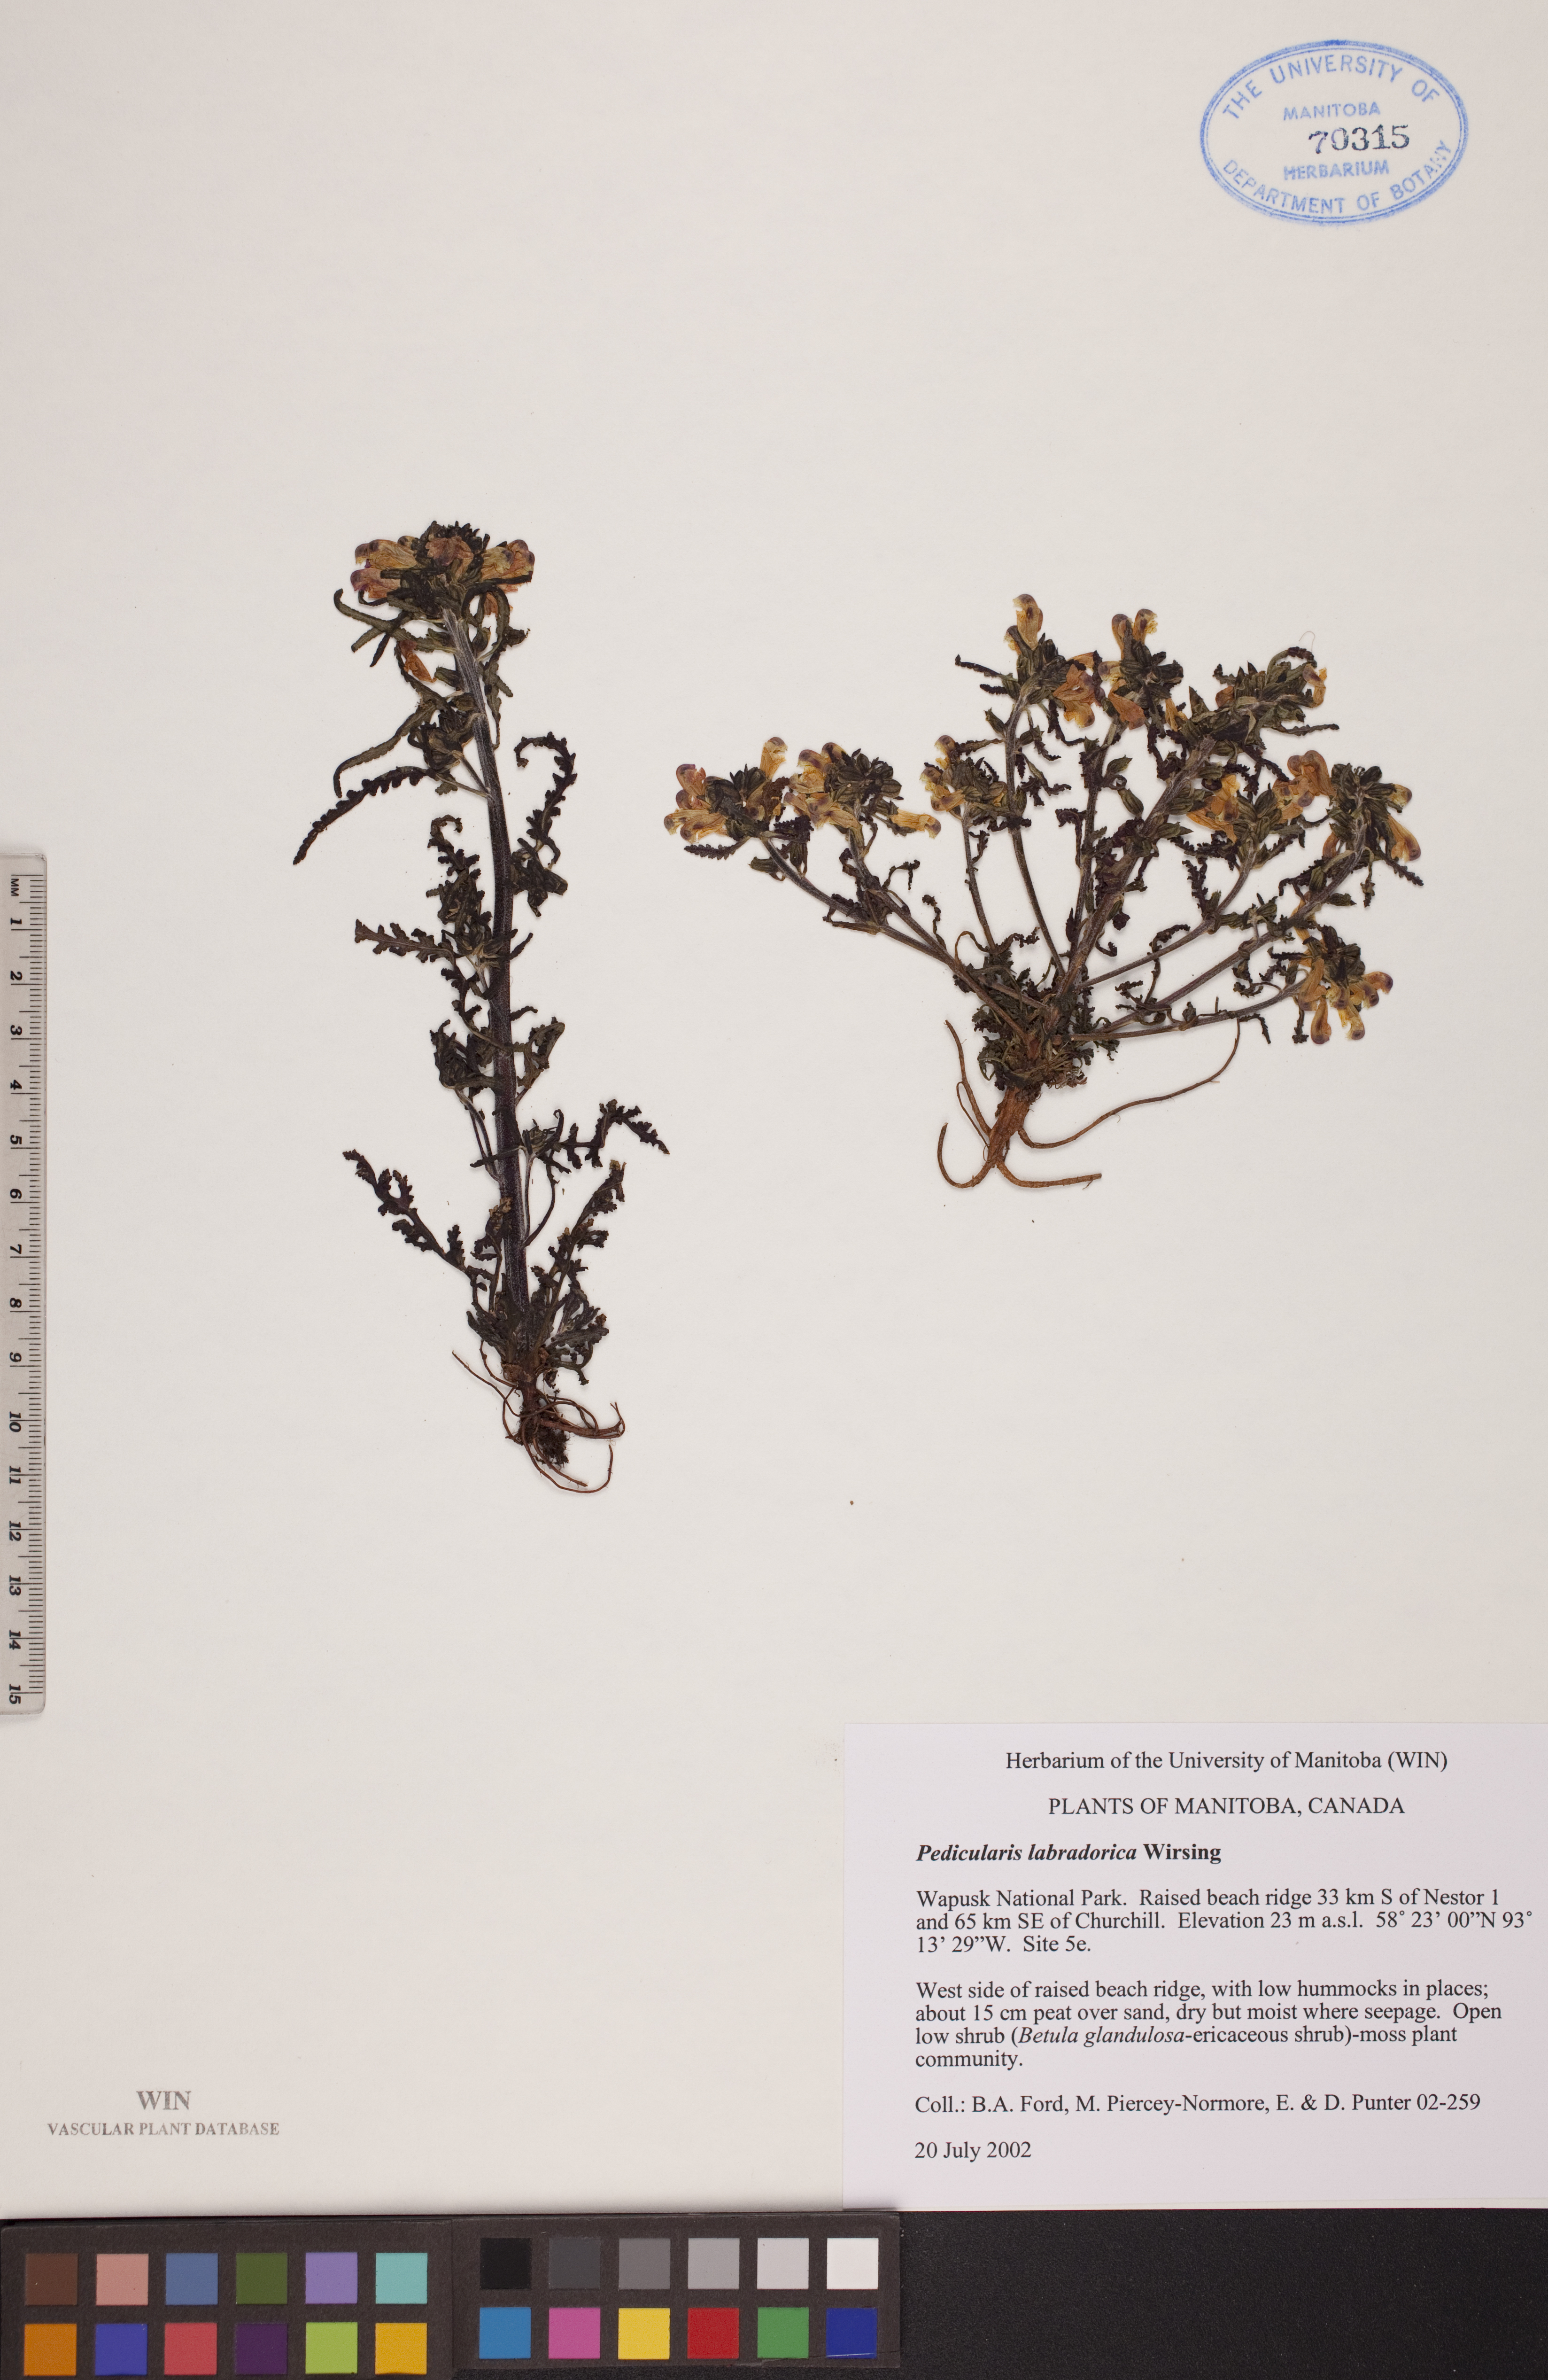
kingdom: Plantae
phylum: Tracheophyta
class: Magnoliopsida
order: Lamiales
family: Orobanchaceae
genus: Pedicularis
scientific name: Pedicularis labradorica
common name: Labrador lousewort
